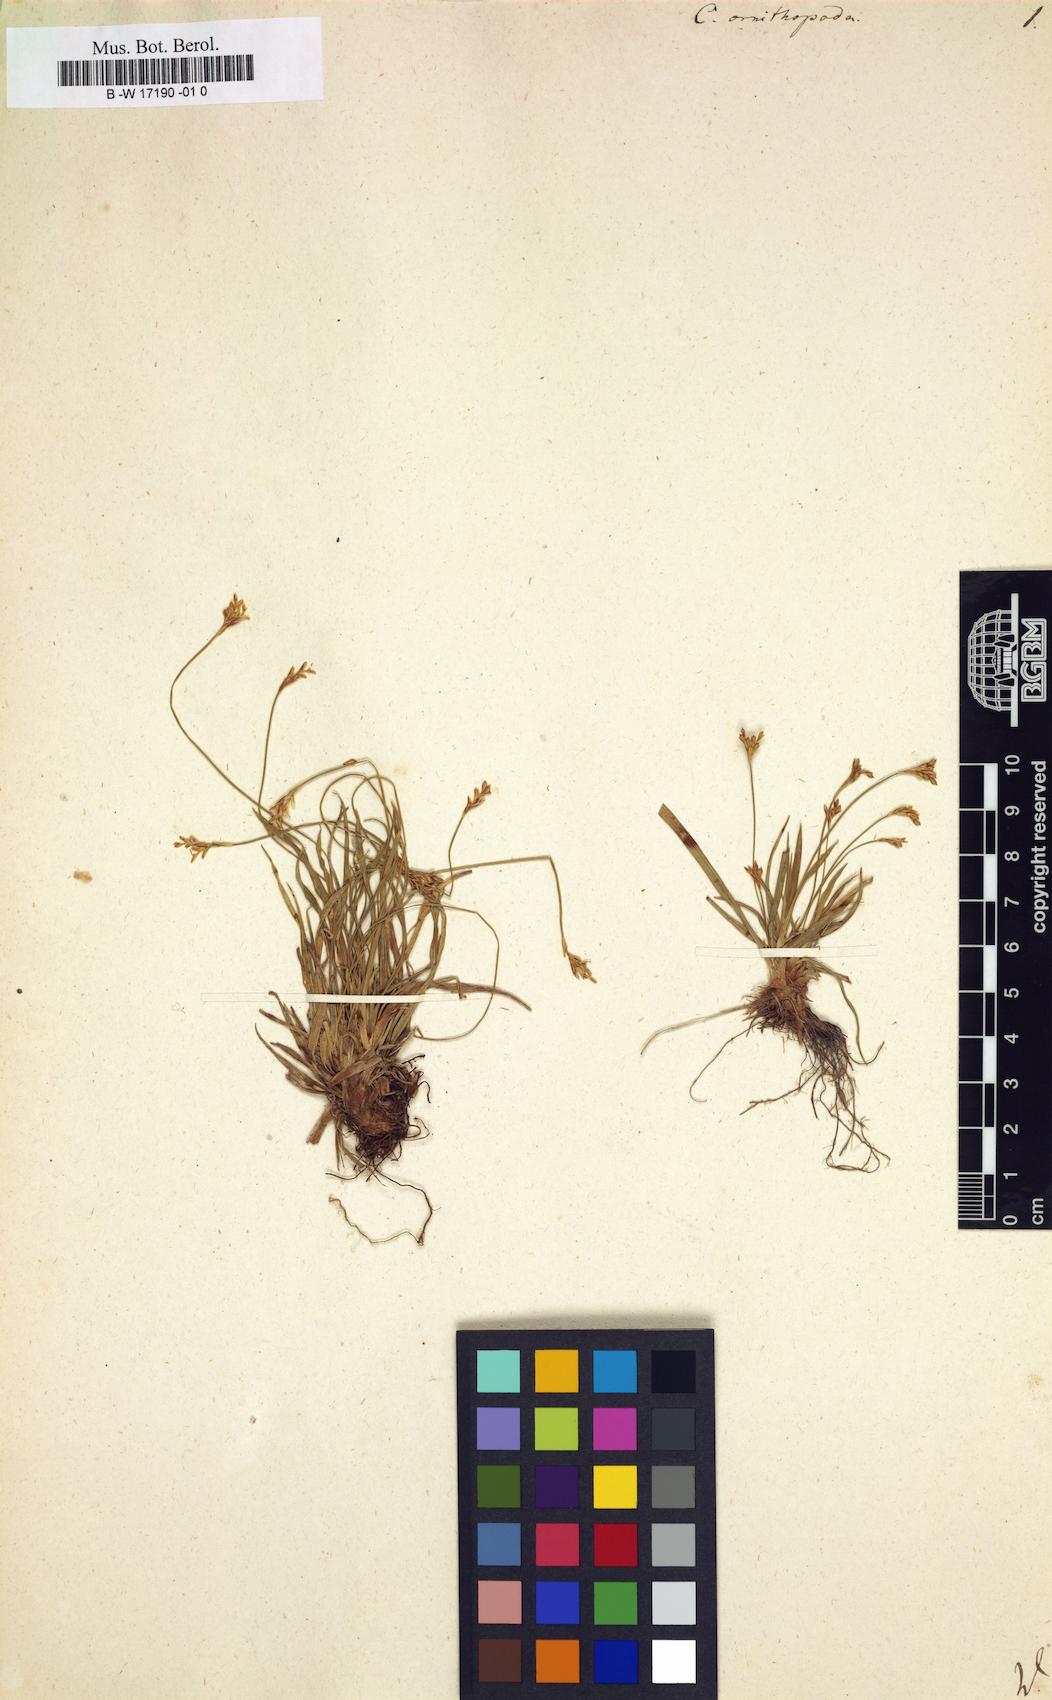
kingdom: Plantae
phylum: Tracheophyta
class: Liliopsida
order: Poales
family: Cyperaceae
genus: Carex
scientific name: Carex ornithopoda
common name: Bird's-foot sedge
